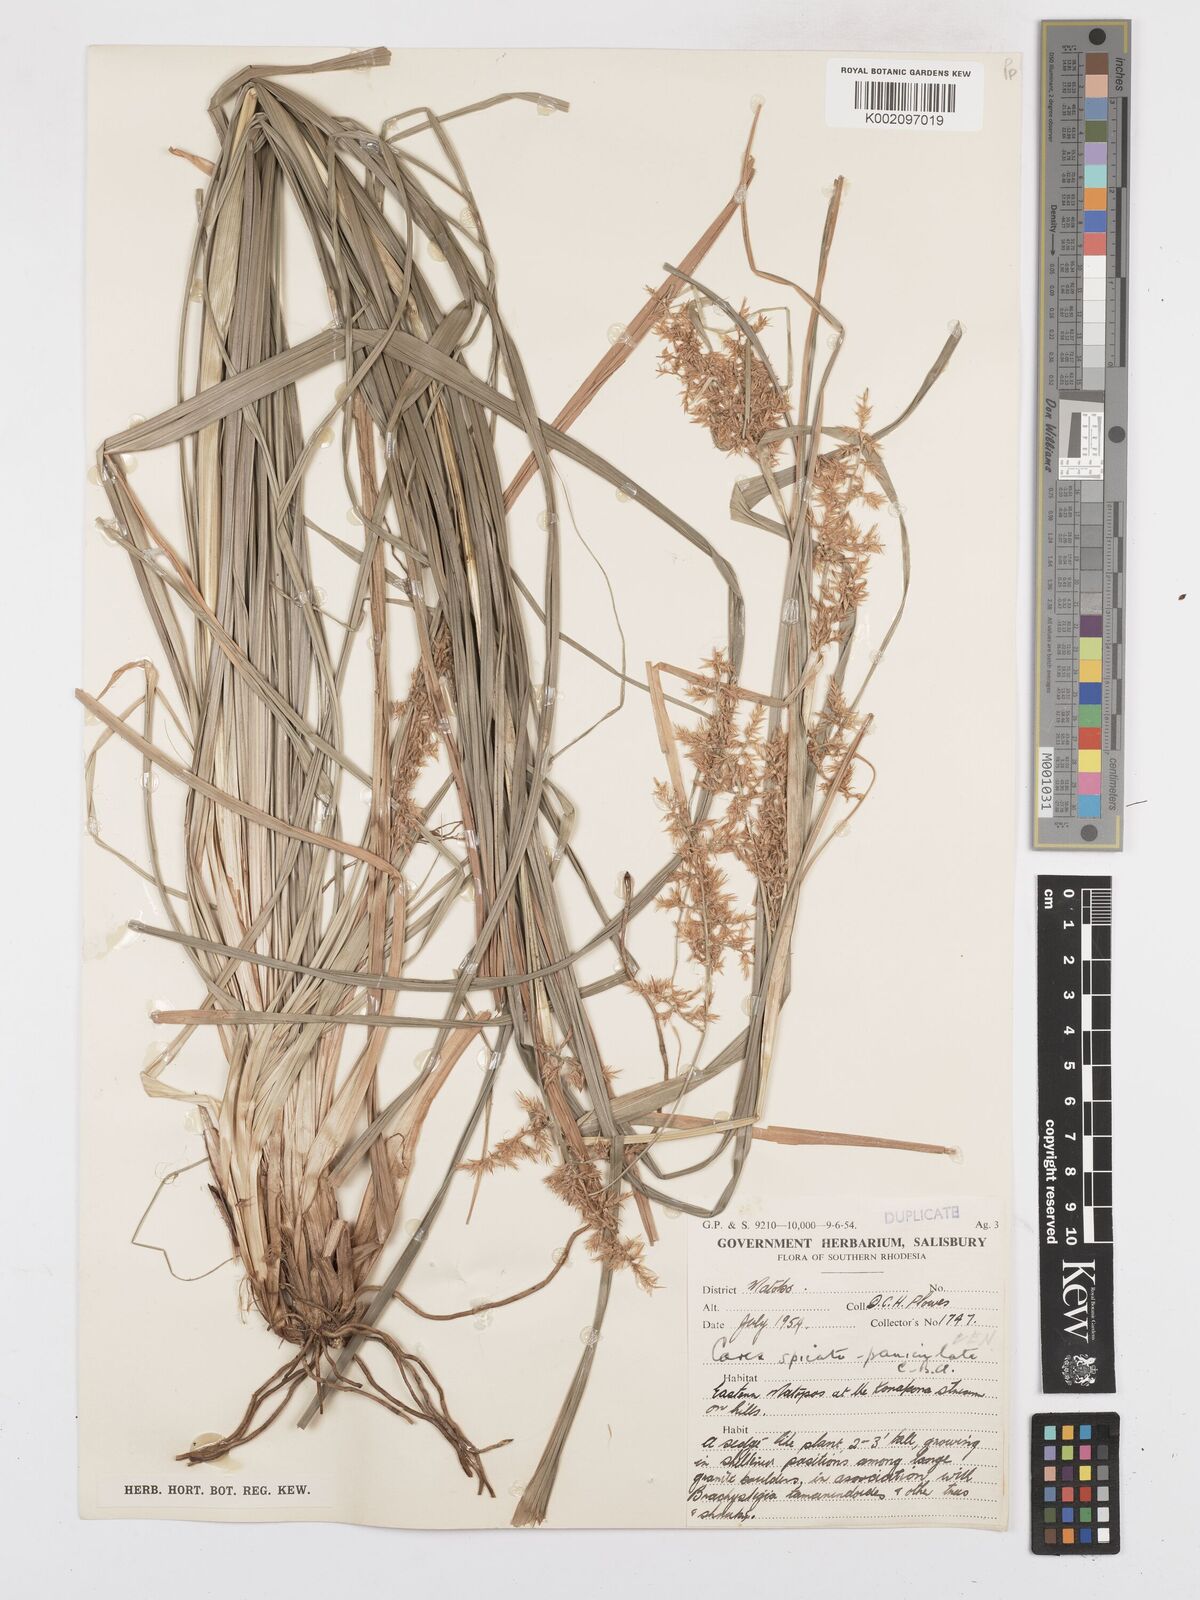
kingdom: Plantae
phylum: Tracheophyta
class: Liliopsida
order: Poales
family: Cyperaceae
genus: Carex
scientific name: Carex spicatopaniculata
